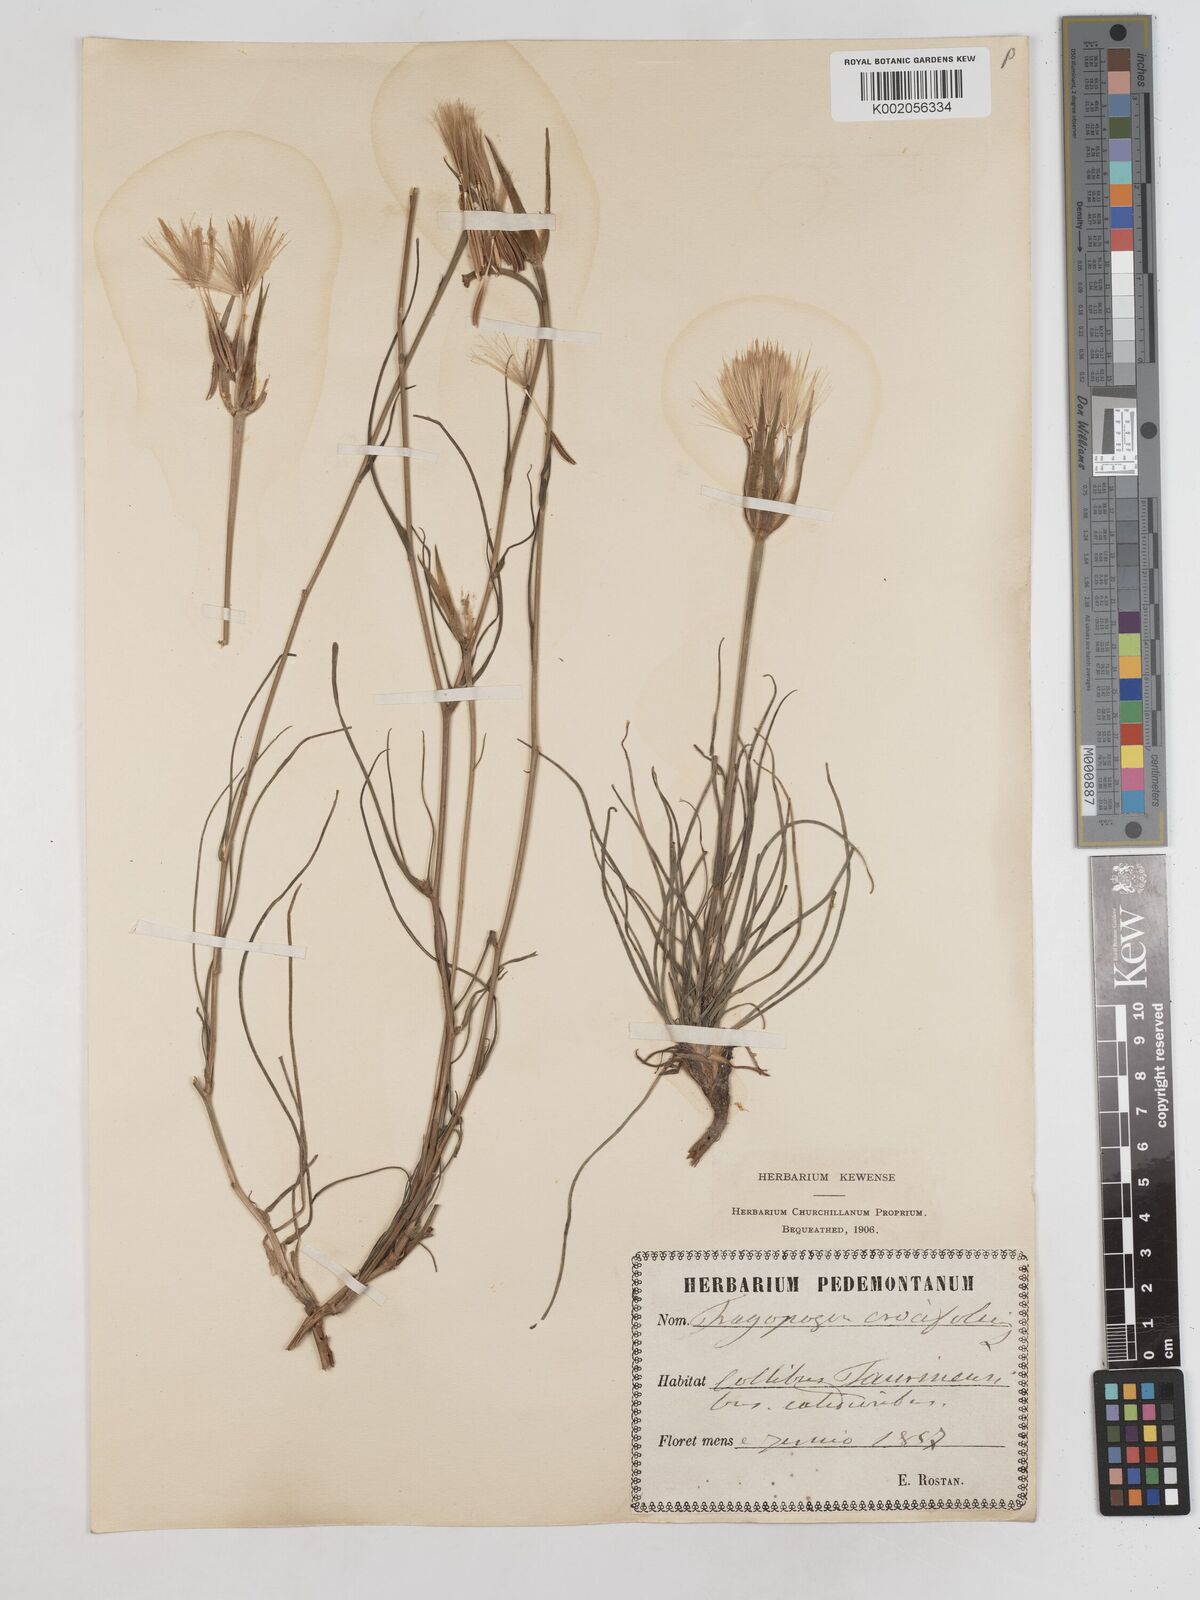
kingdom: Plantae
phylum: Tracheophyta
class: Magnoliopsida
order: Asterales
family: Asteraceae
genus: Tragopogon
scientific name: Tragopogon crocifolius
